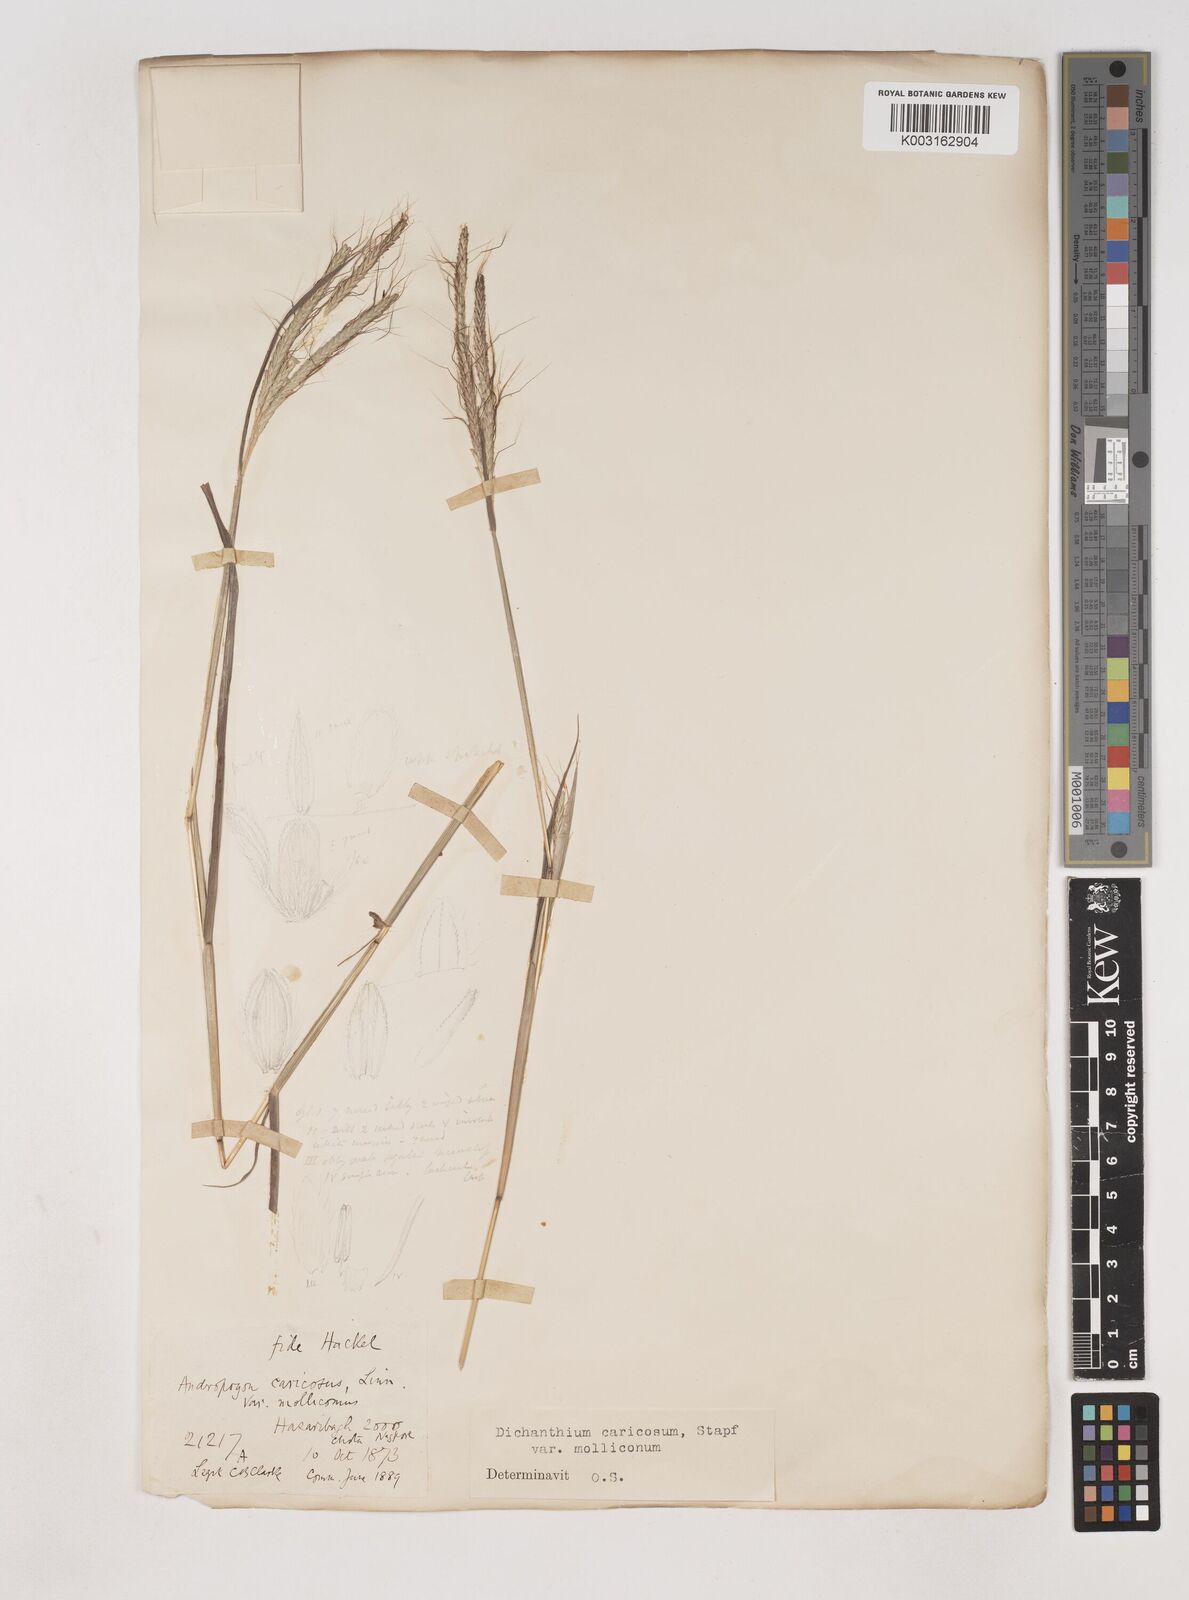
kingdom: Plantae
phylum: Tracheophyta
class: Liliopsida
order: Poales
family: Poaceae
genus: Dichanthium
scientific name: Dichanthium aristatum
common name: Angleton bluestem
